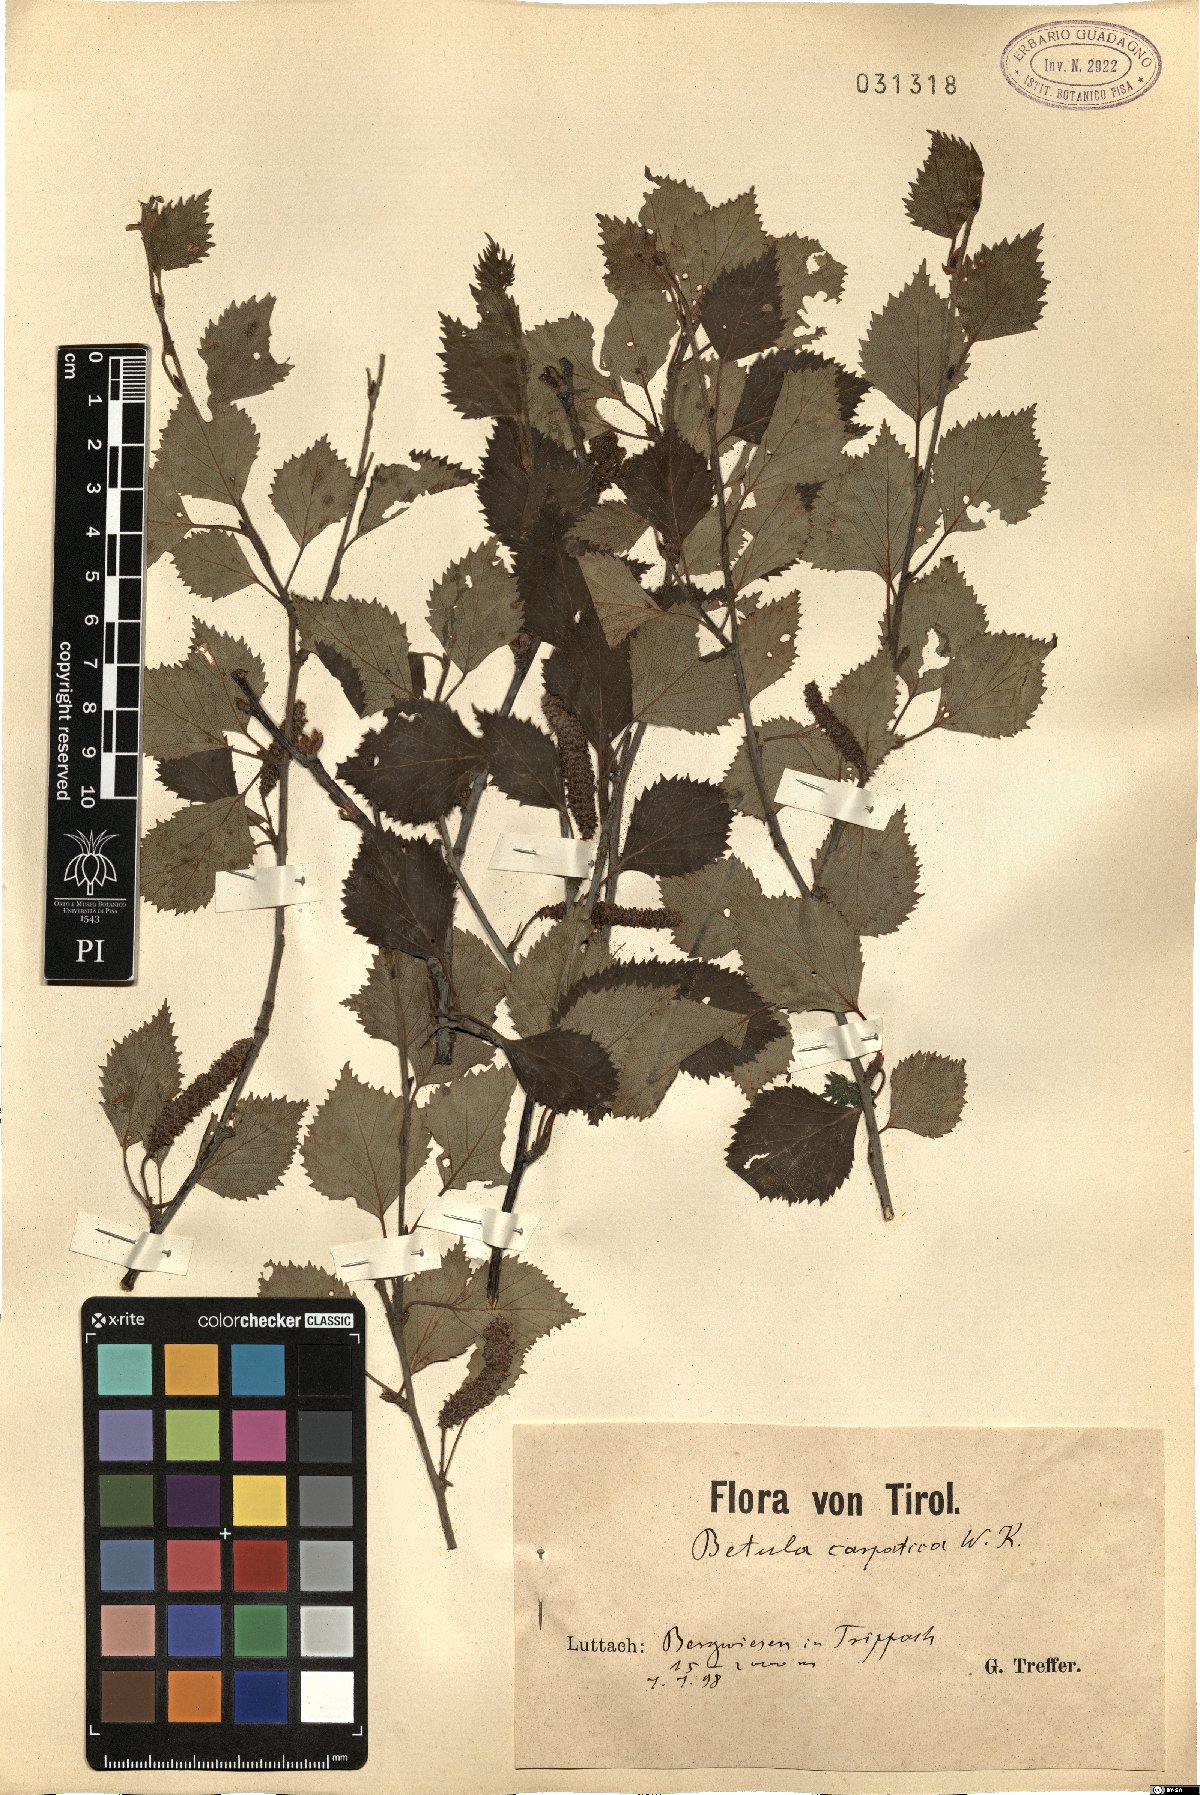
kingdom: Plantae
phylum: Tracheophyta
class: Magnoliopsida
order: Fagales
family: Betulaceae
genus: Betula
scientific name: Betula pubescens
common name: Downy birch
